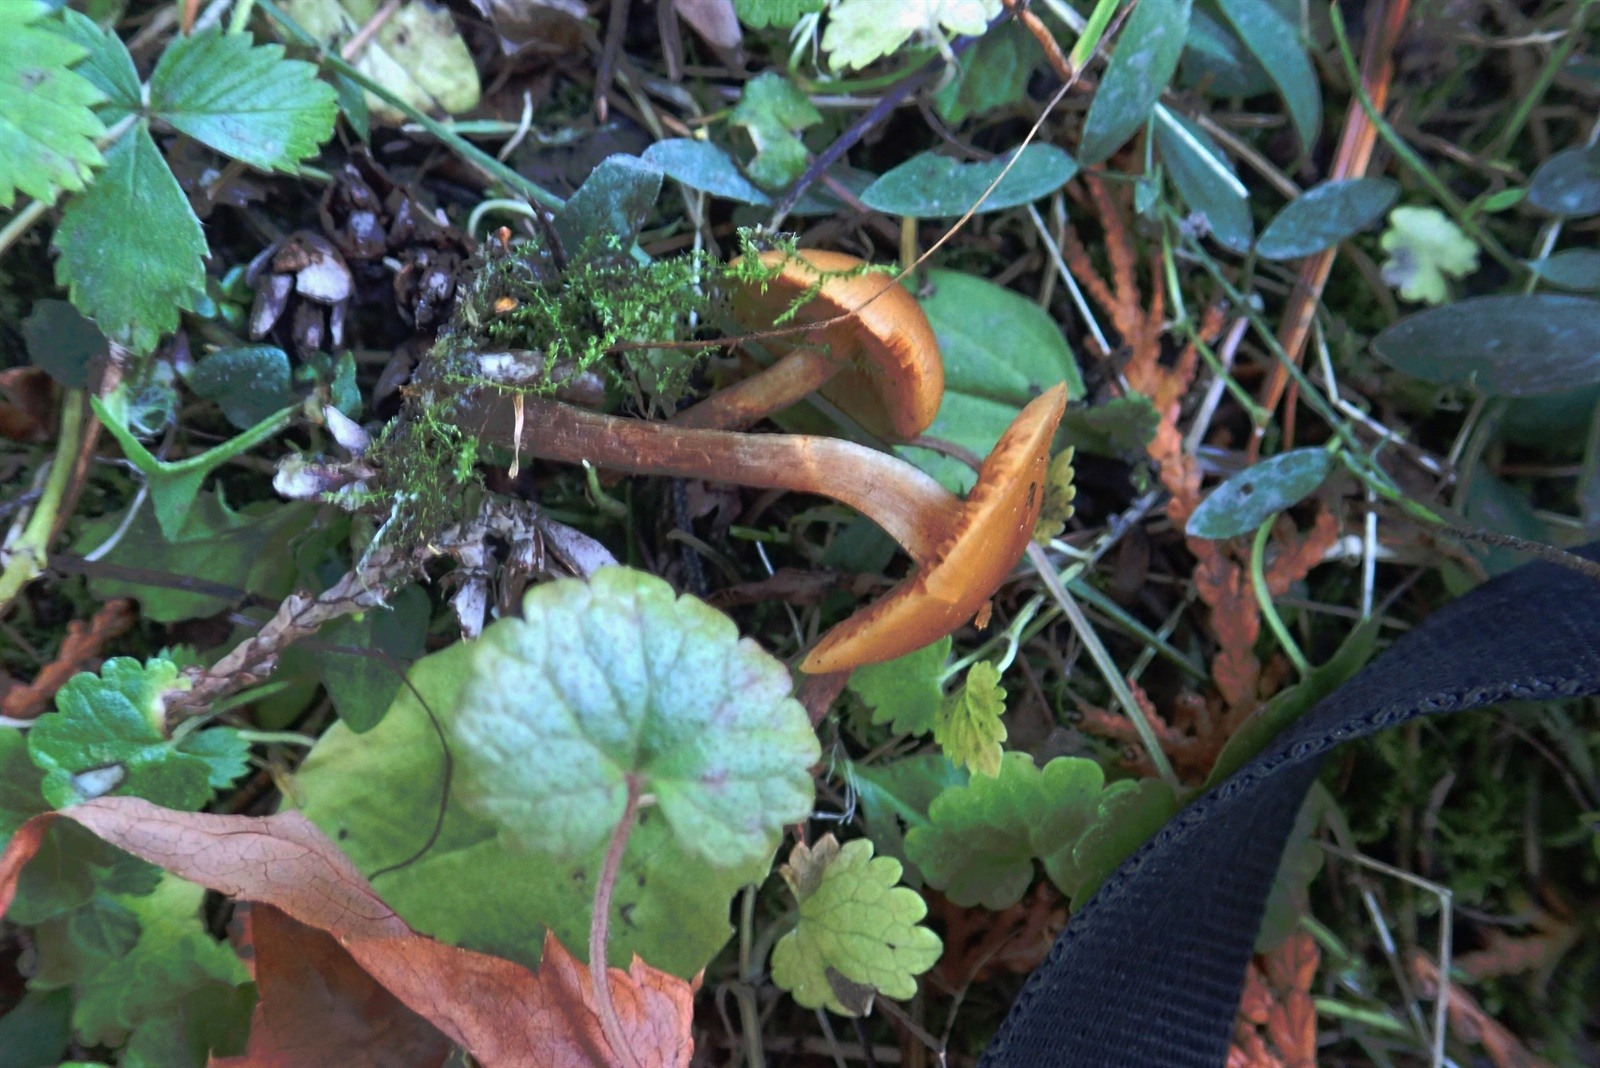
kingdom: Fungi
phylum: Basidiomycota
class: Agaricomycetes
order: Agaricales
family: Hymenogastraceae
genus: Galerina
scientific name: Galerina uncialis
